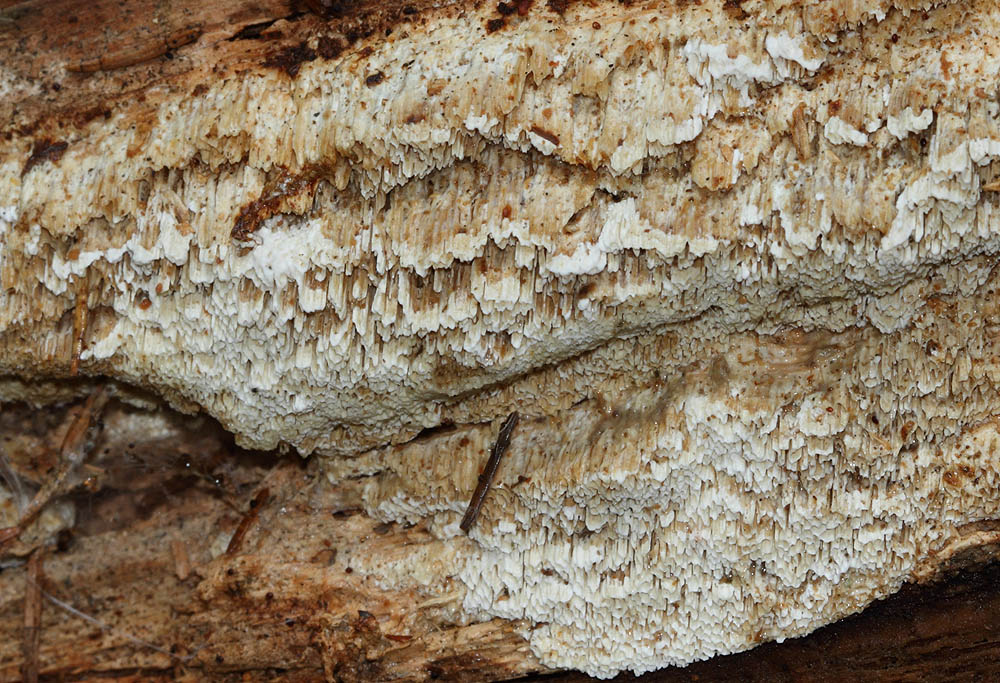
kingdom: Fungi
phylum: Basidiomycota
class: Agaricomycetes
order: Polyporales
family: Fomitopsidaceae
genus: Antrodia
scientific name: Antrodia sinuosa
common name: tømmer-sejporesvamp
